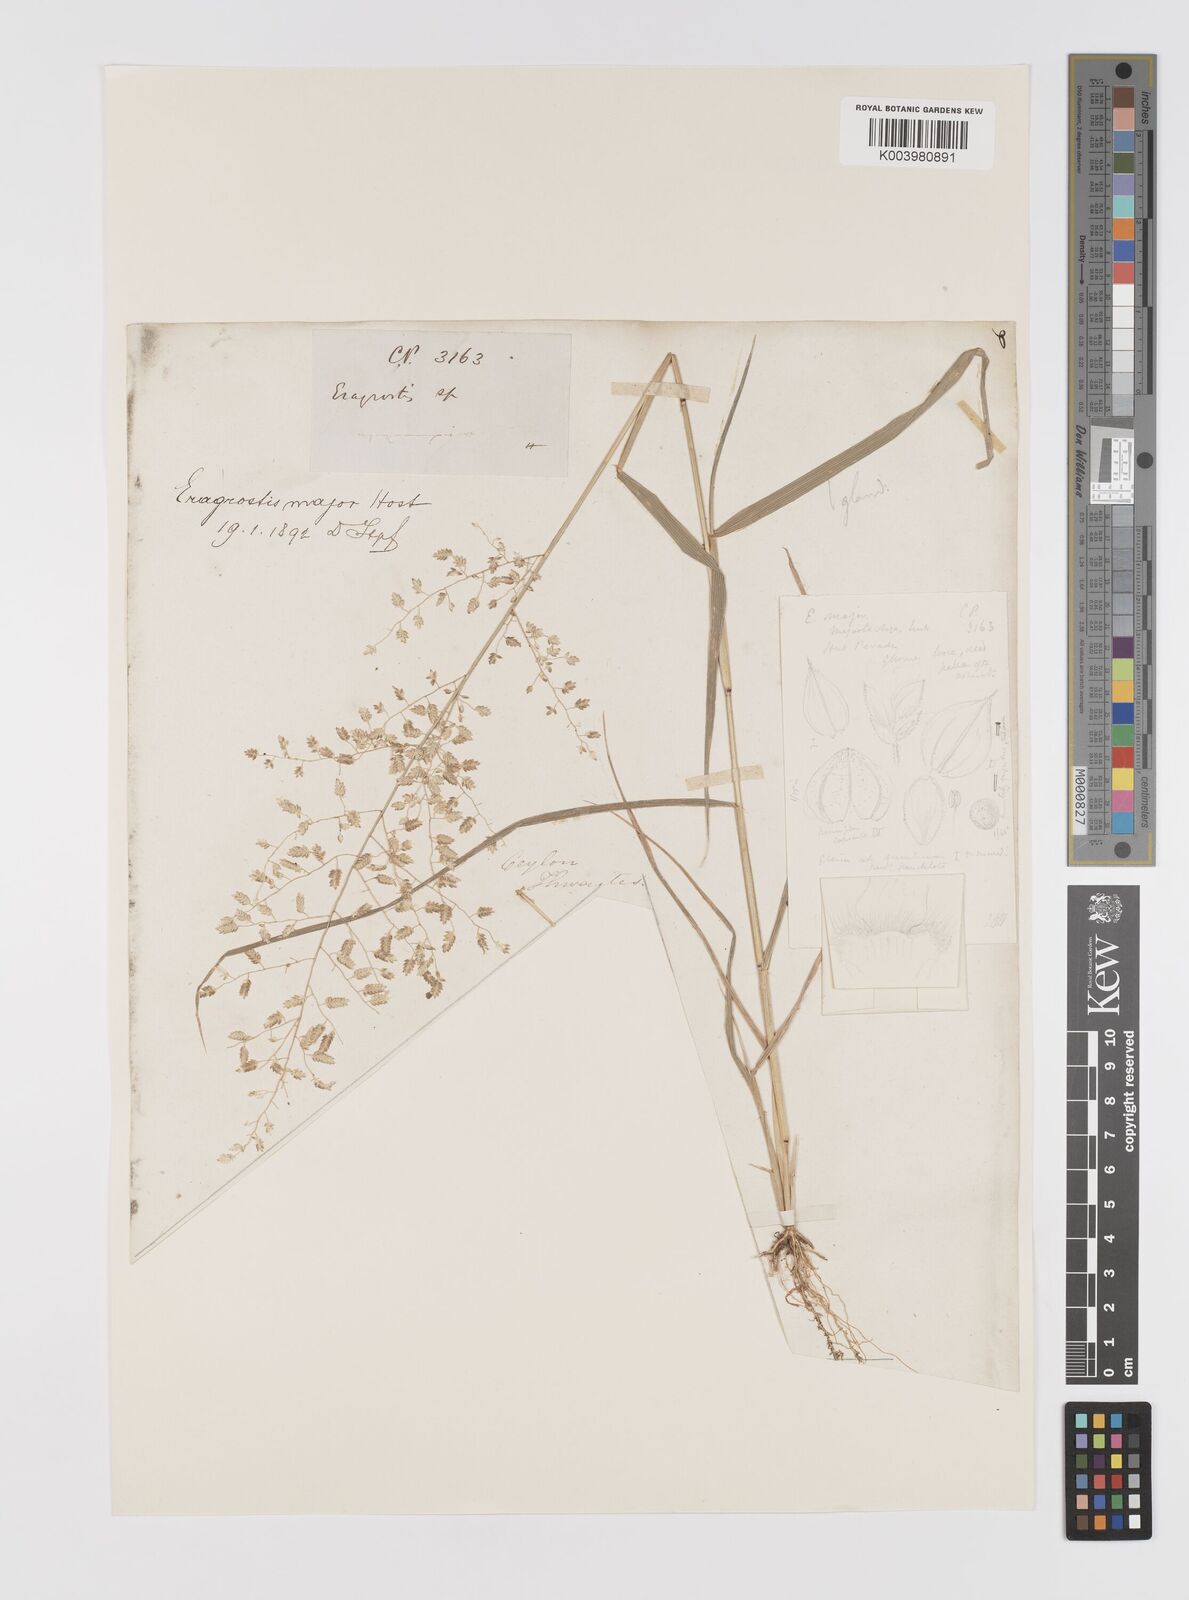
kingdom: Plantae
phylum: Tracheophyta
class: Liliopsida
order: Poales
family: Poaceae
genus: Eragrostis
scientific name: Eragrostis cilianensis
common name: Stinkgrass
